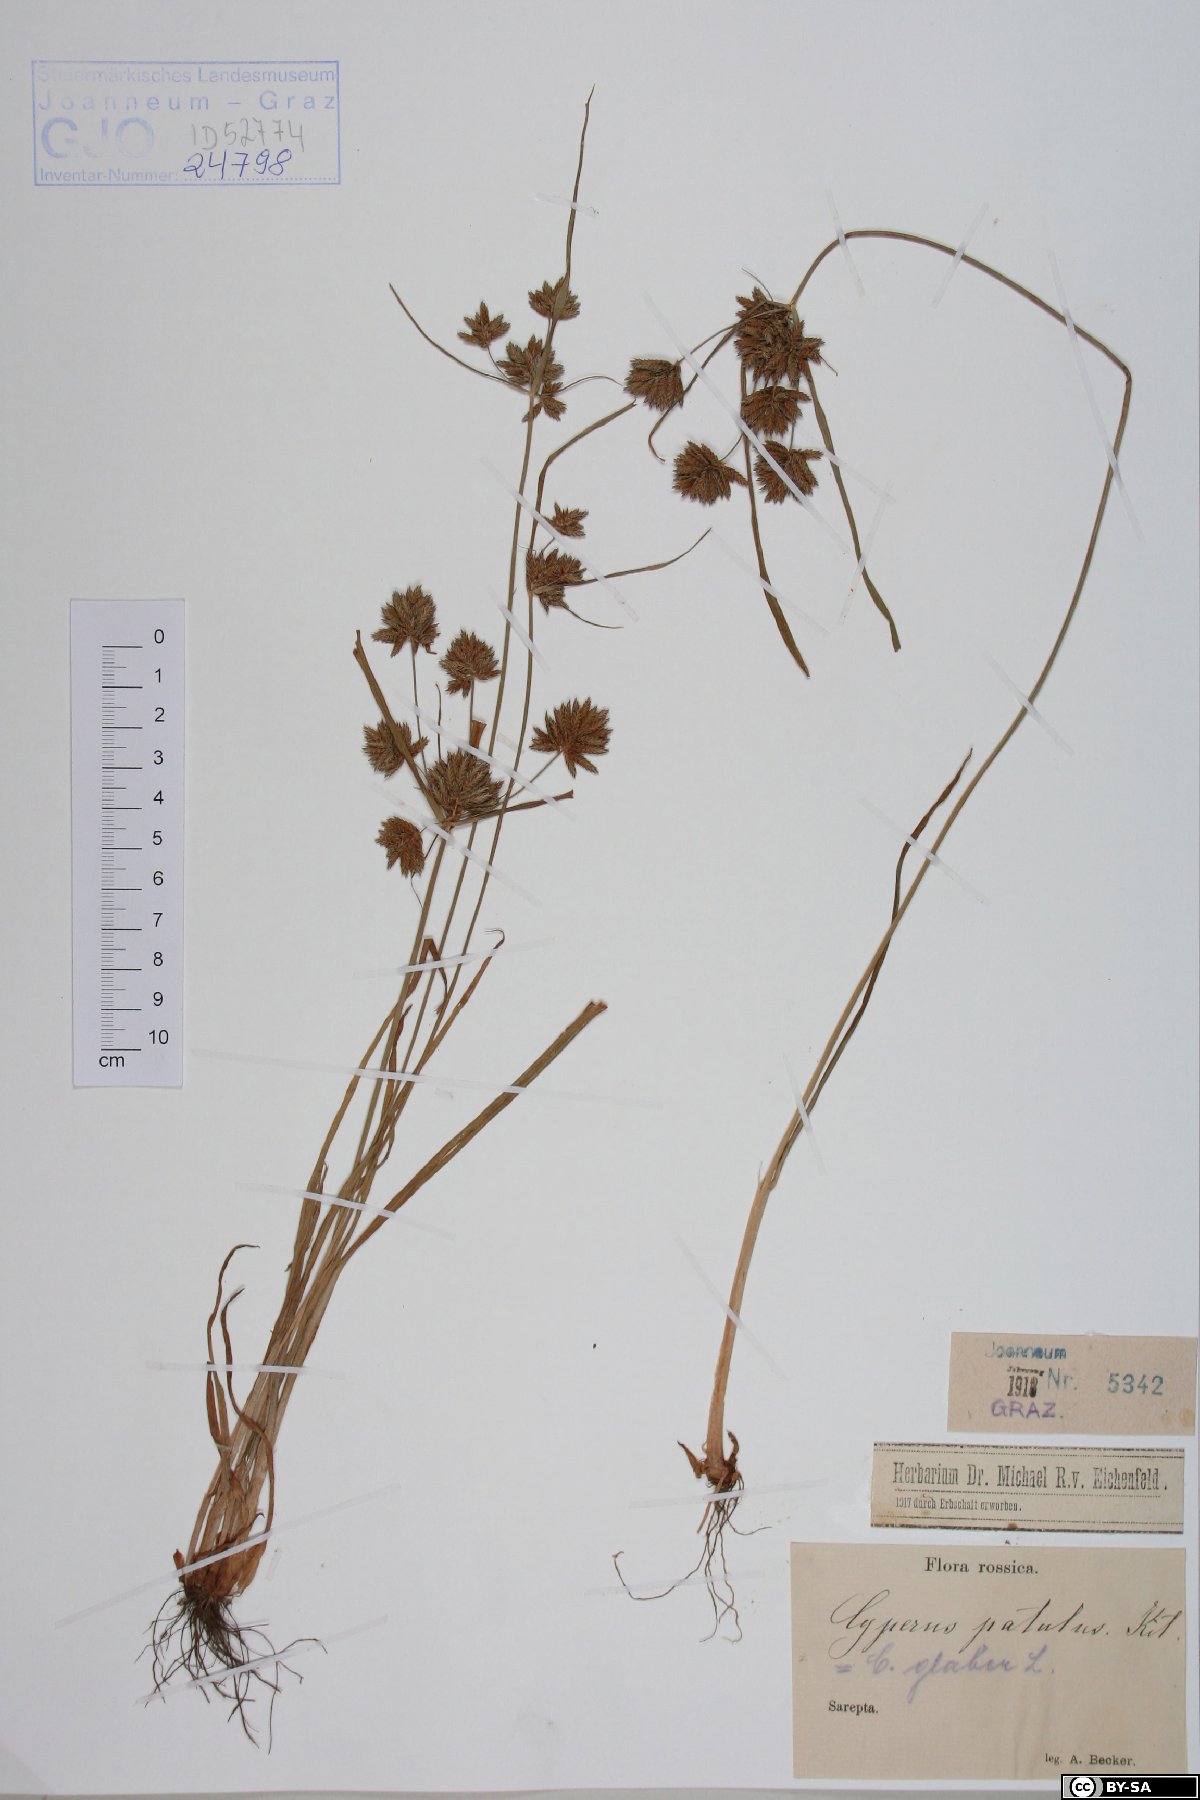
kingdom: Plantae
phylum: Tracheophyta
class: Liliopsida
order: Poales
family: Cyperaceae
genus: Cyperus
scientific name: Cyperus glaber
